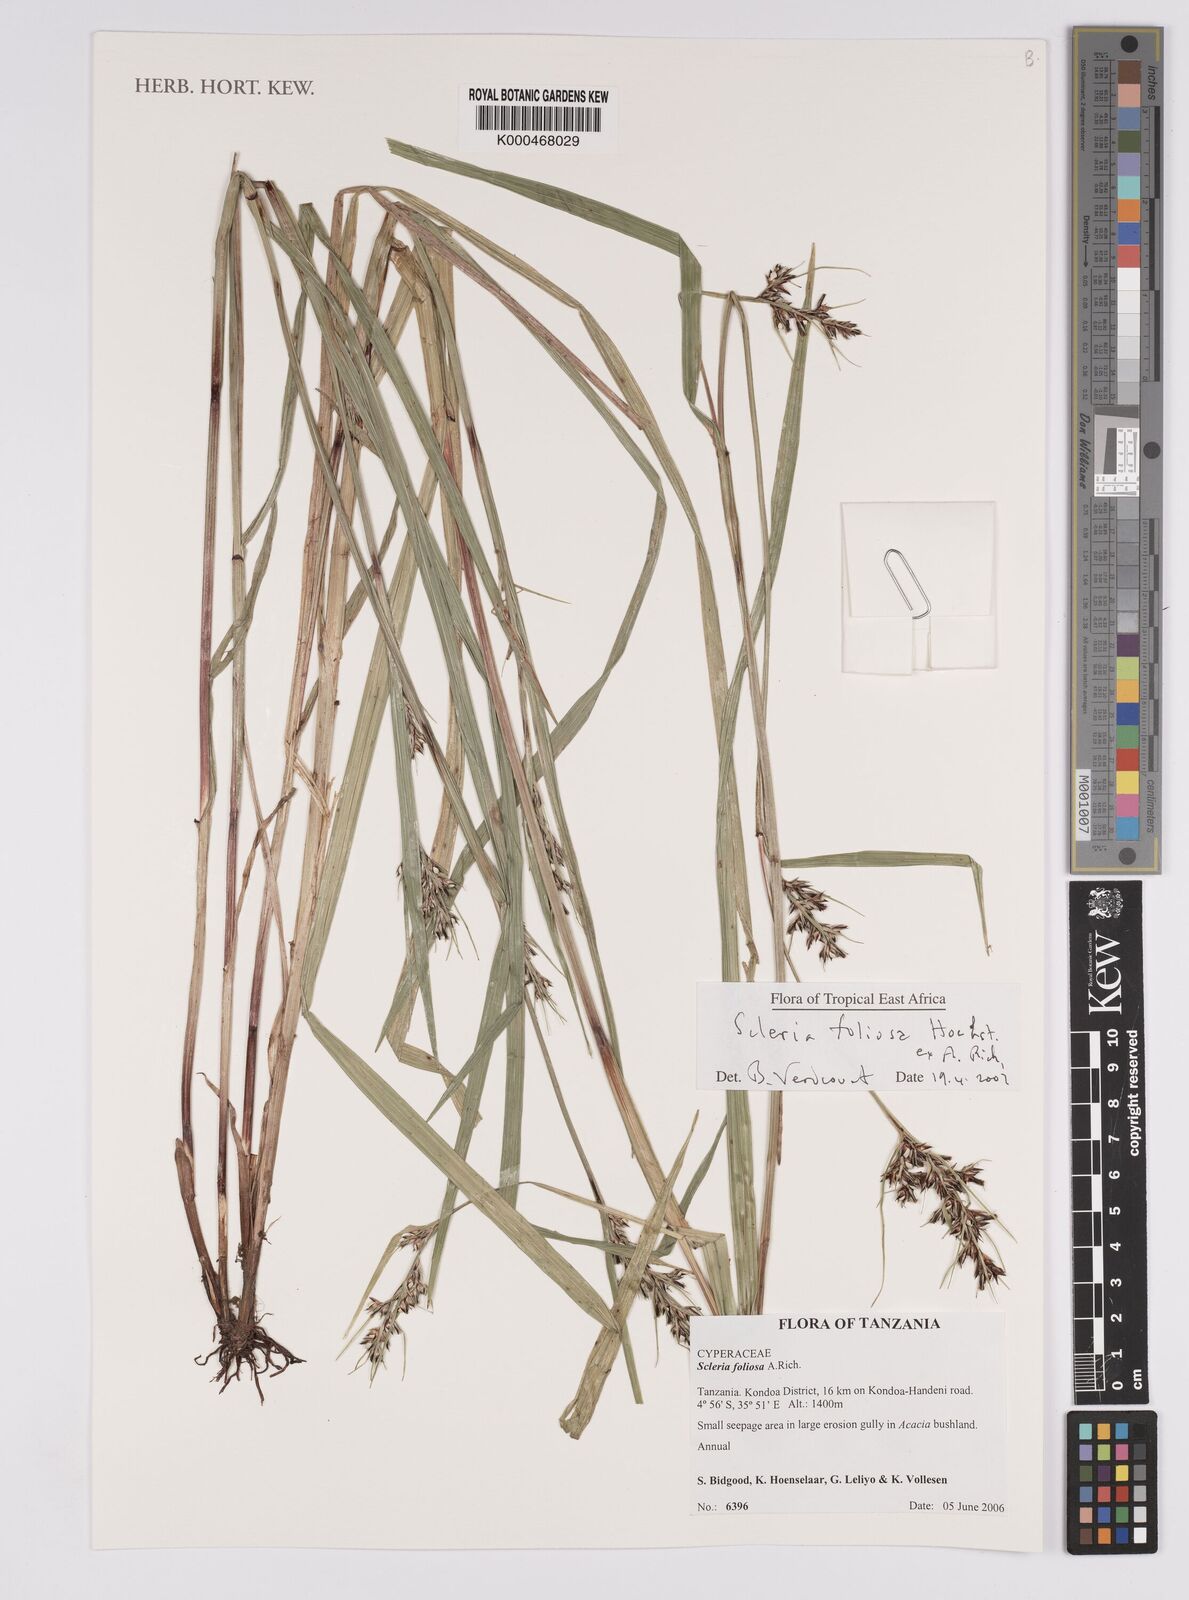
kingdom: Plantae
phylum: Tracheophyta
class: Liliopsida
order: Poales
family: Cyperaceae
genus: Scleria
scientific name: Scleria foliosa
